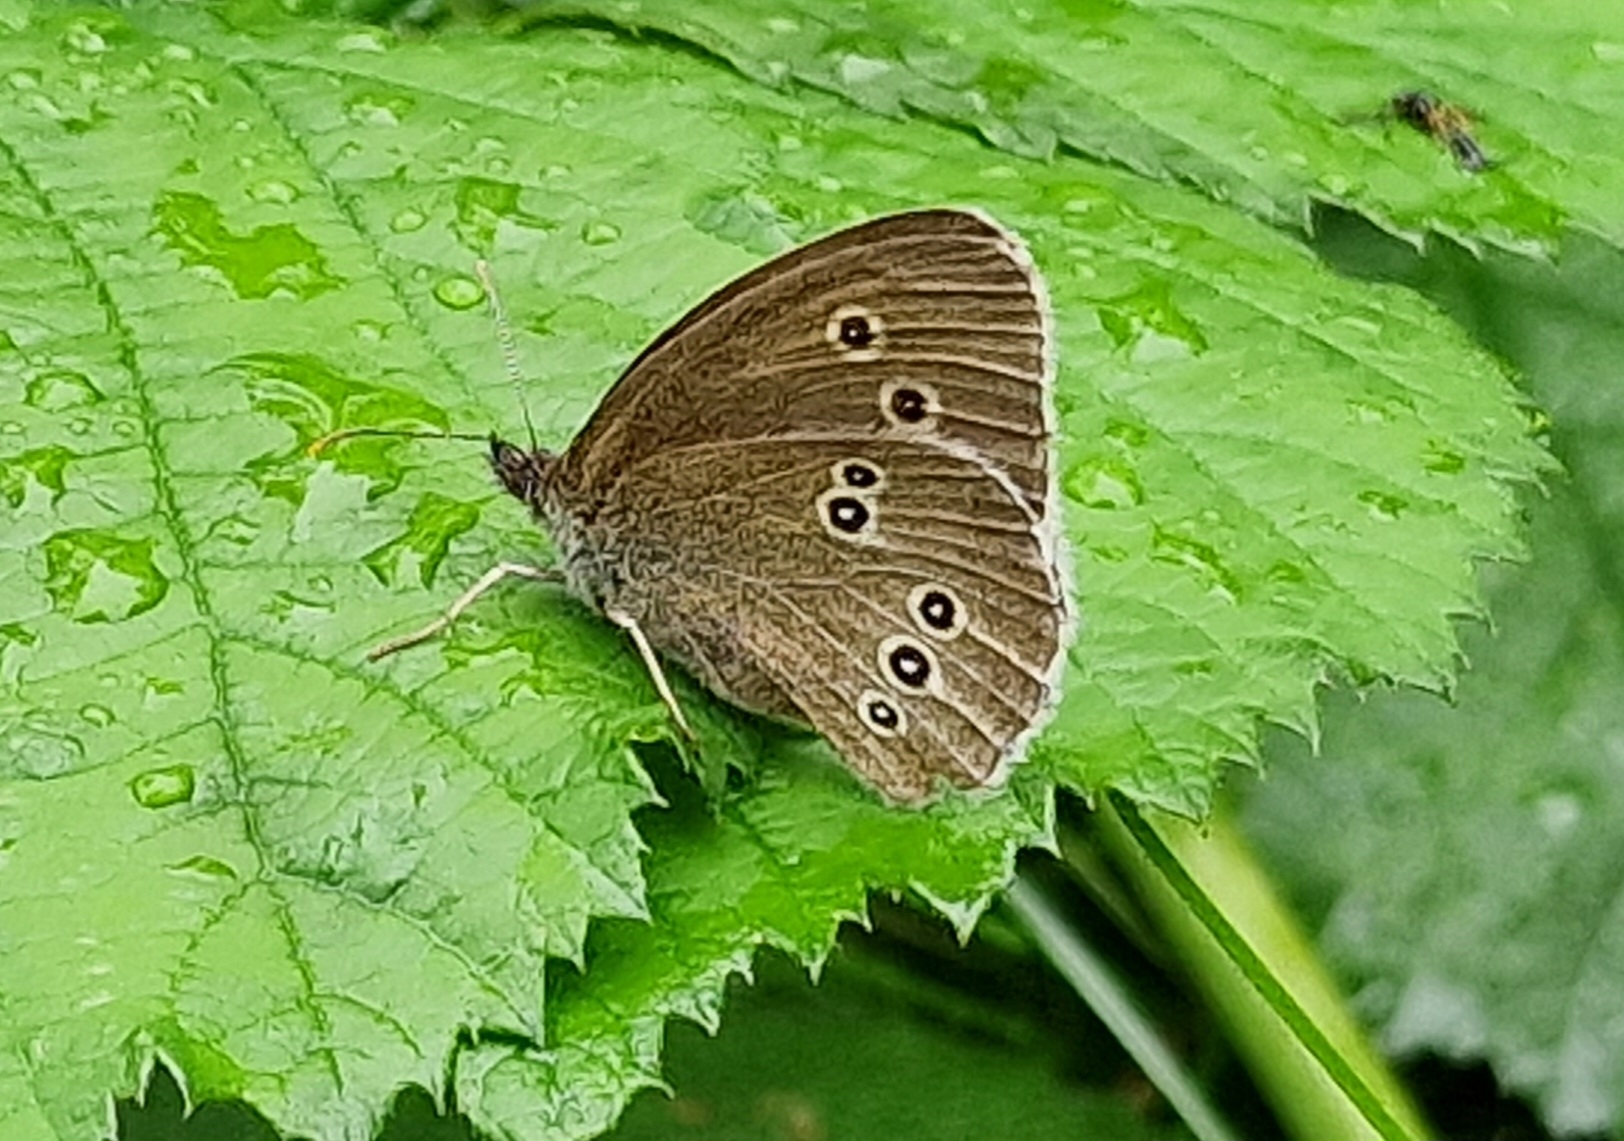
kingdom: Animalia
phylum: Arthropoda
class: Insecta
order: Lepidoptera
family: Nymphalidae
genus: Aphantopus
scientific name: Aphantopus hyperantus
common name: Engrandøje
